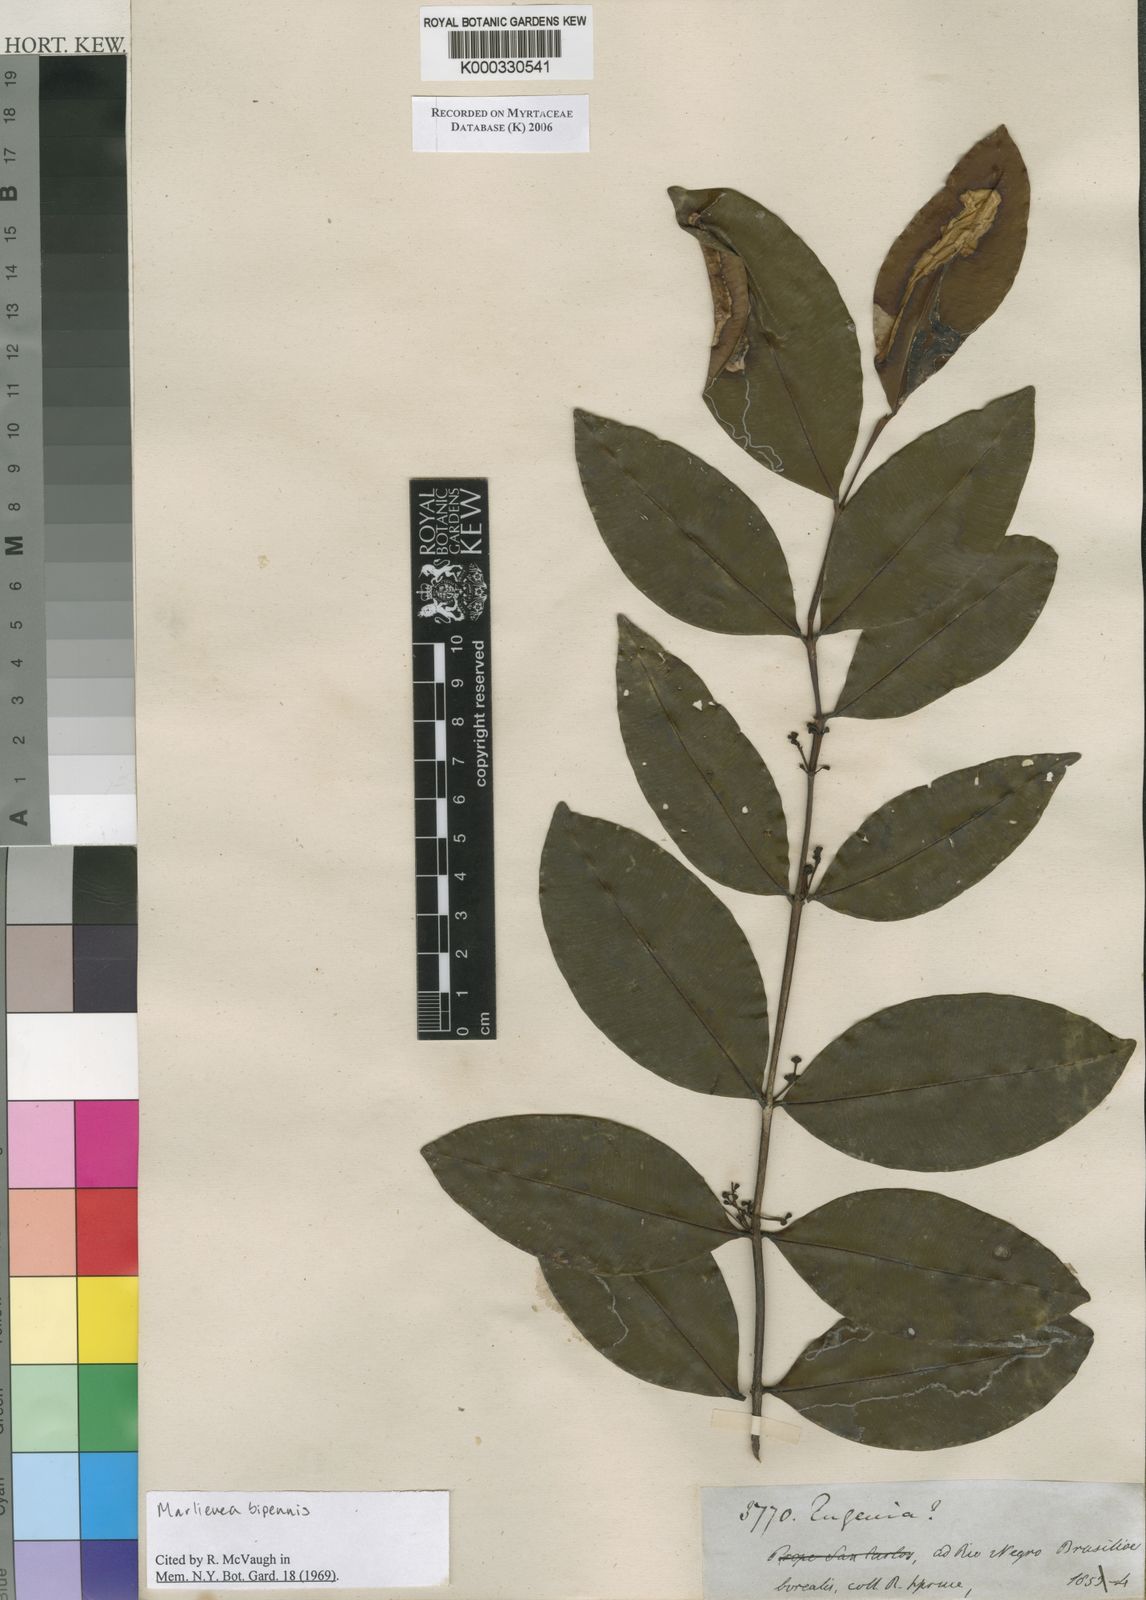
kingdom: Plantae
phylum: Tracheophyta
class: Magnoliopsida
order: Myrtales
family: Myrtaceae
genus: Myrcia
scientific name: Myrcia bipennis
